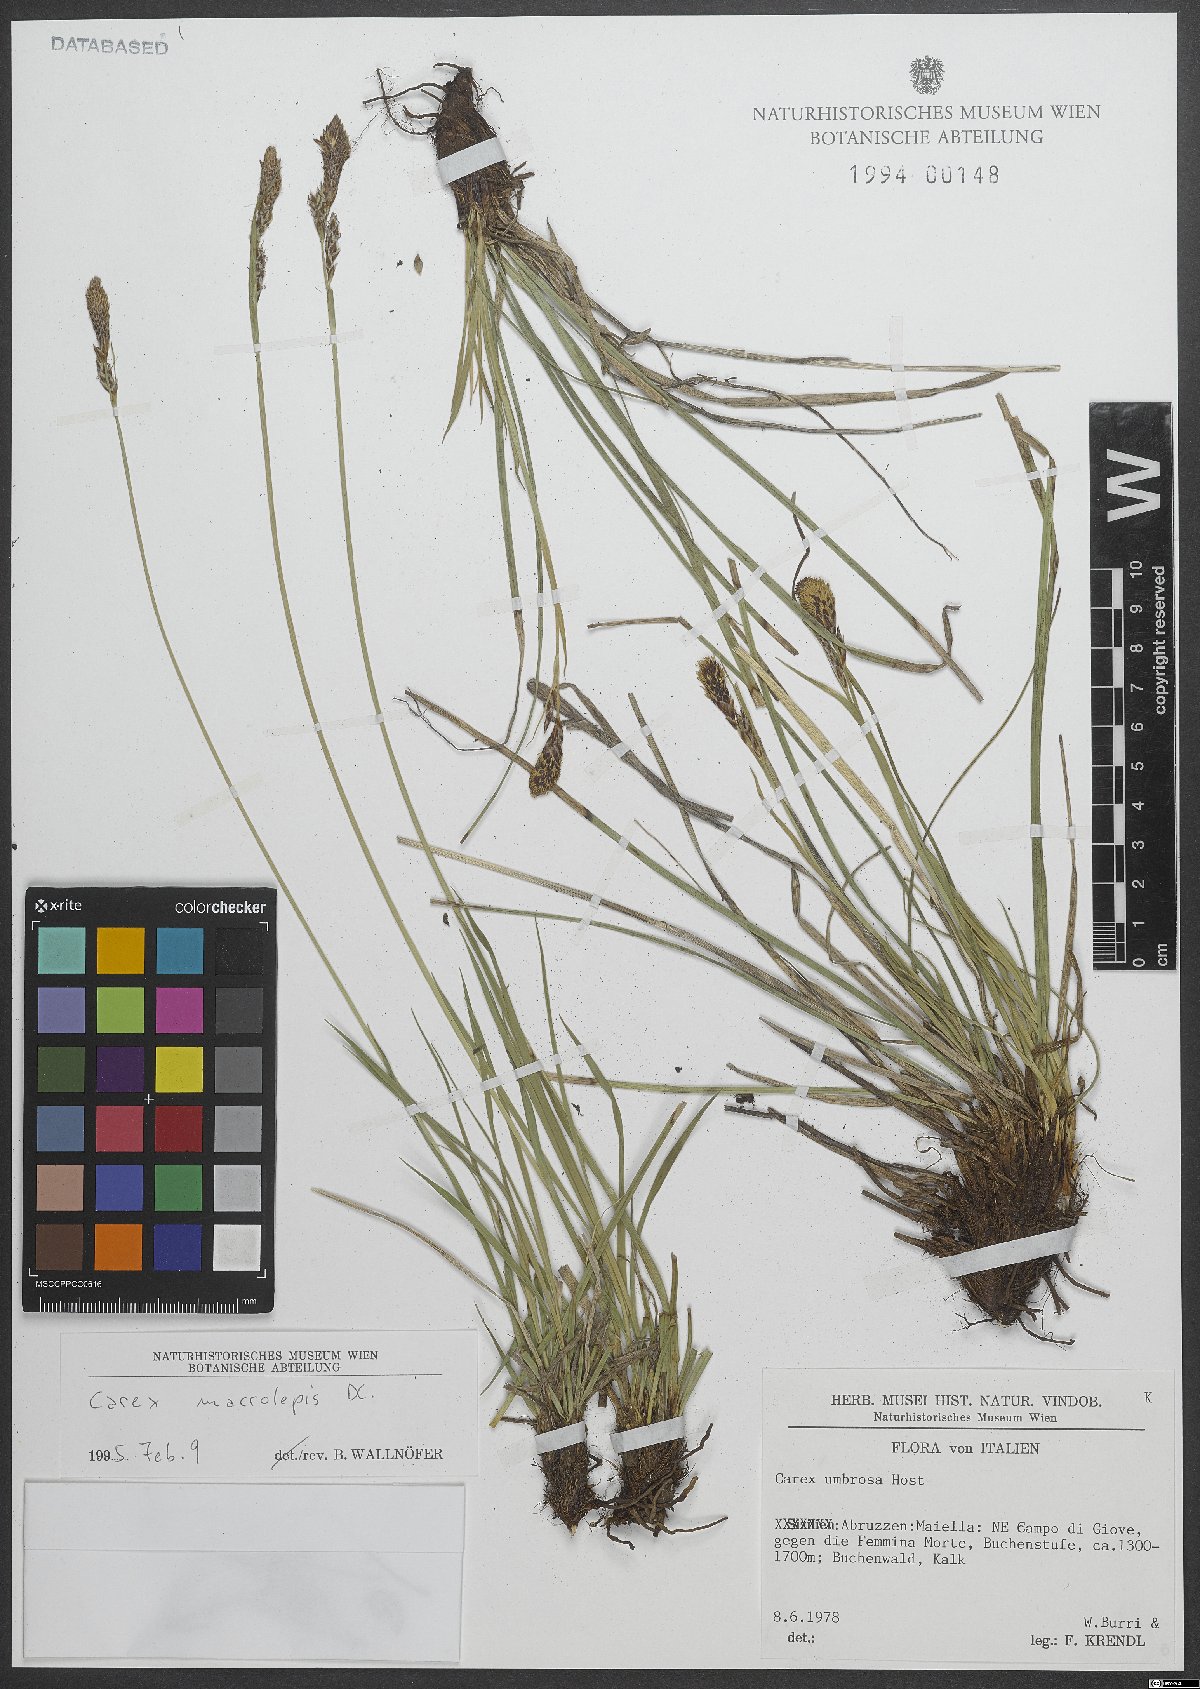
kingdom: Plantae
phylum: Tracheophyta
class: Liliopsida
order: Poales
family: Cyperaceae
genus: Carex
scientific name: Carex macrolepis
